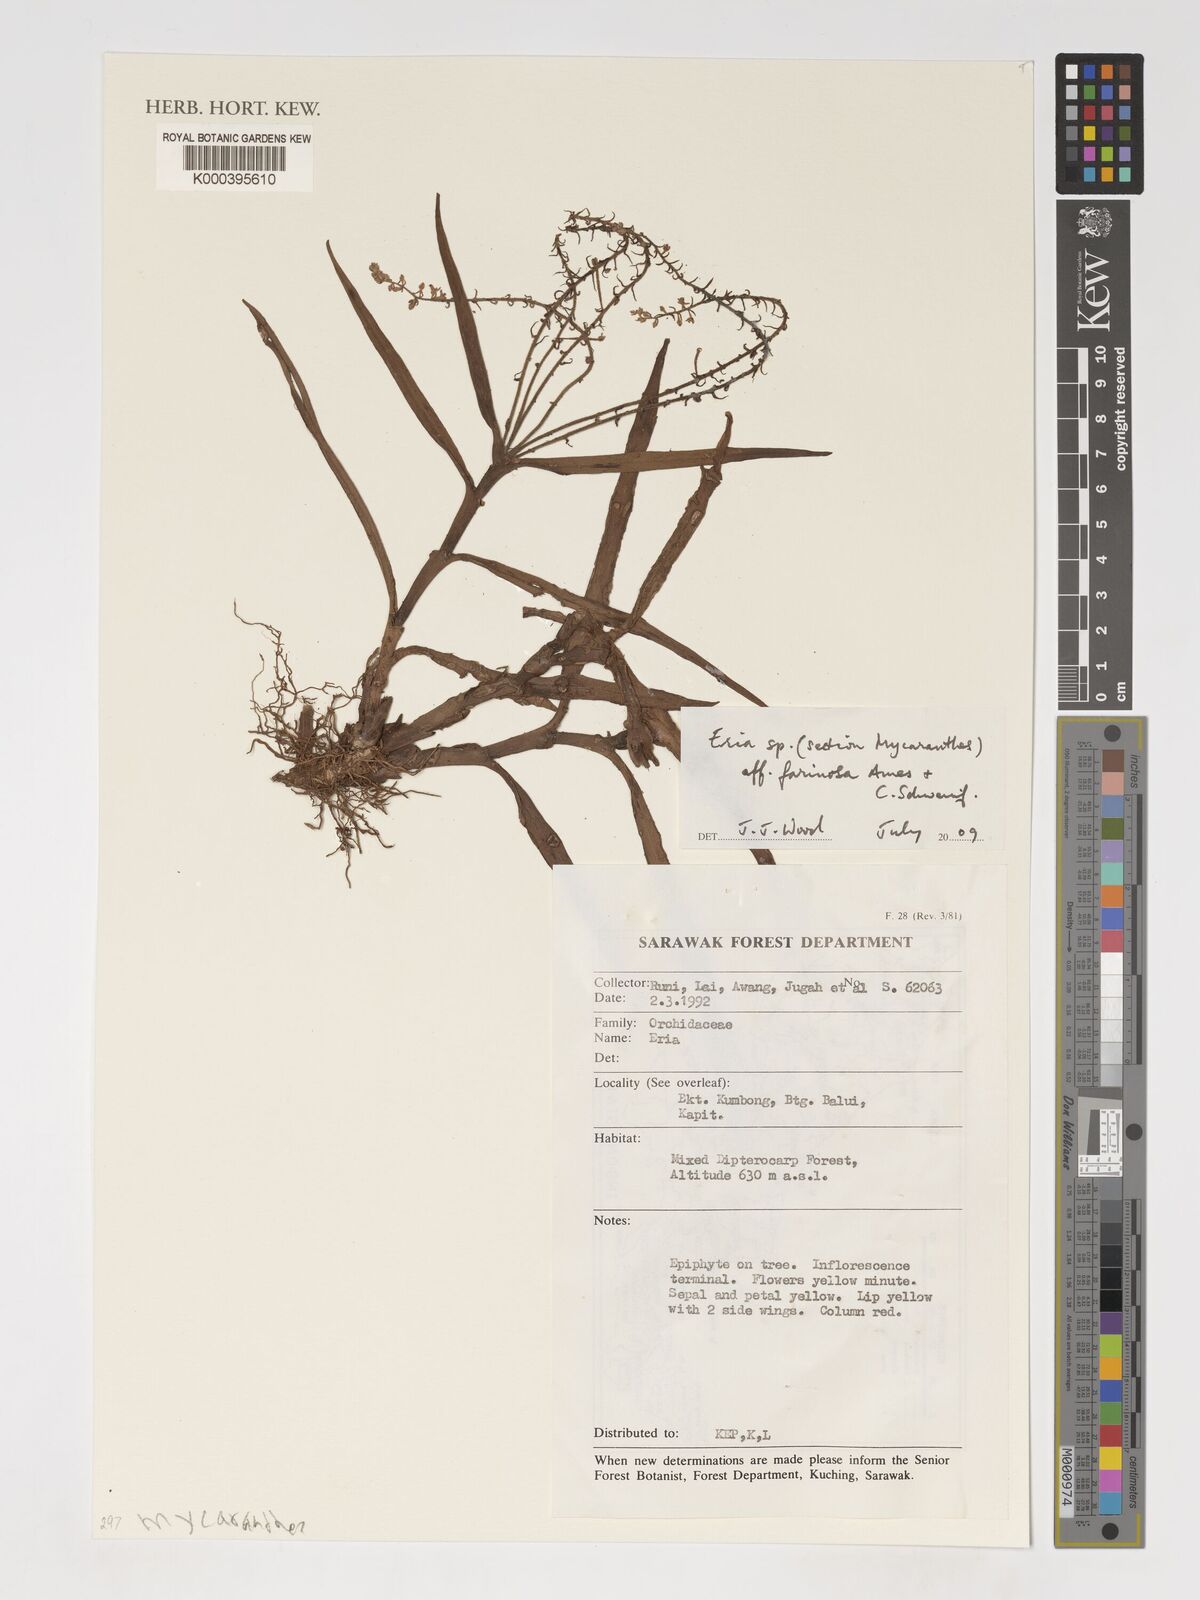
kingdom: Plantae
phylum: Tracheophyta
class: Liliopsida
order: Asparagales
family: Orchidaceae
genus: Mycaranthes
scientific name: Mycaranthes farinosa
